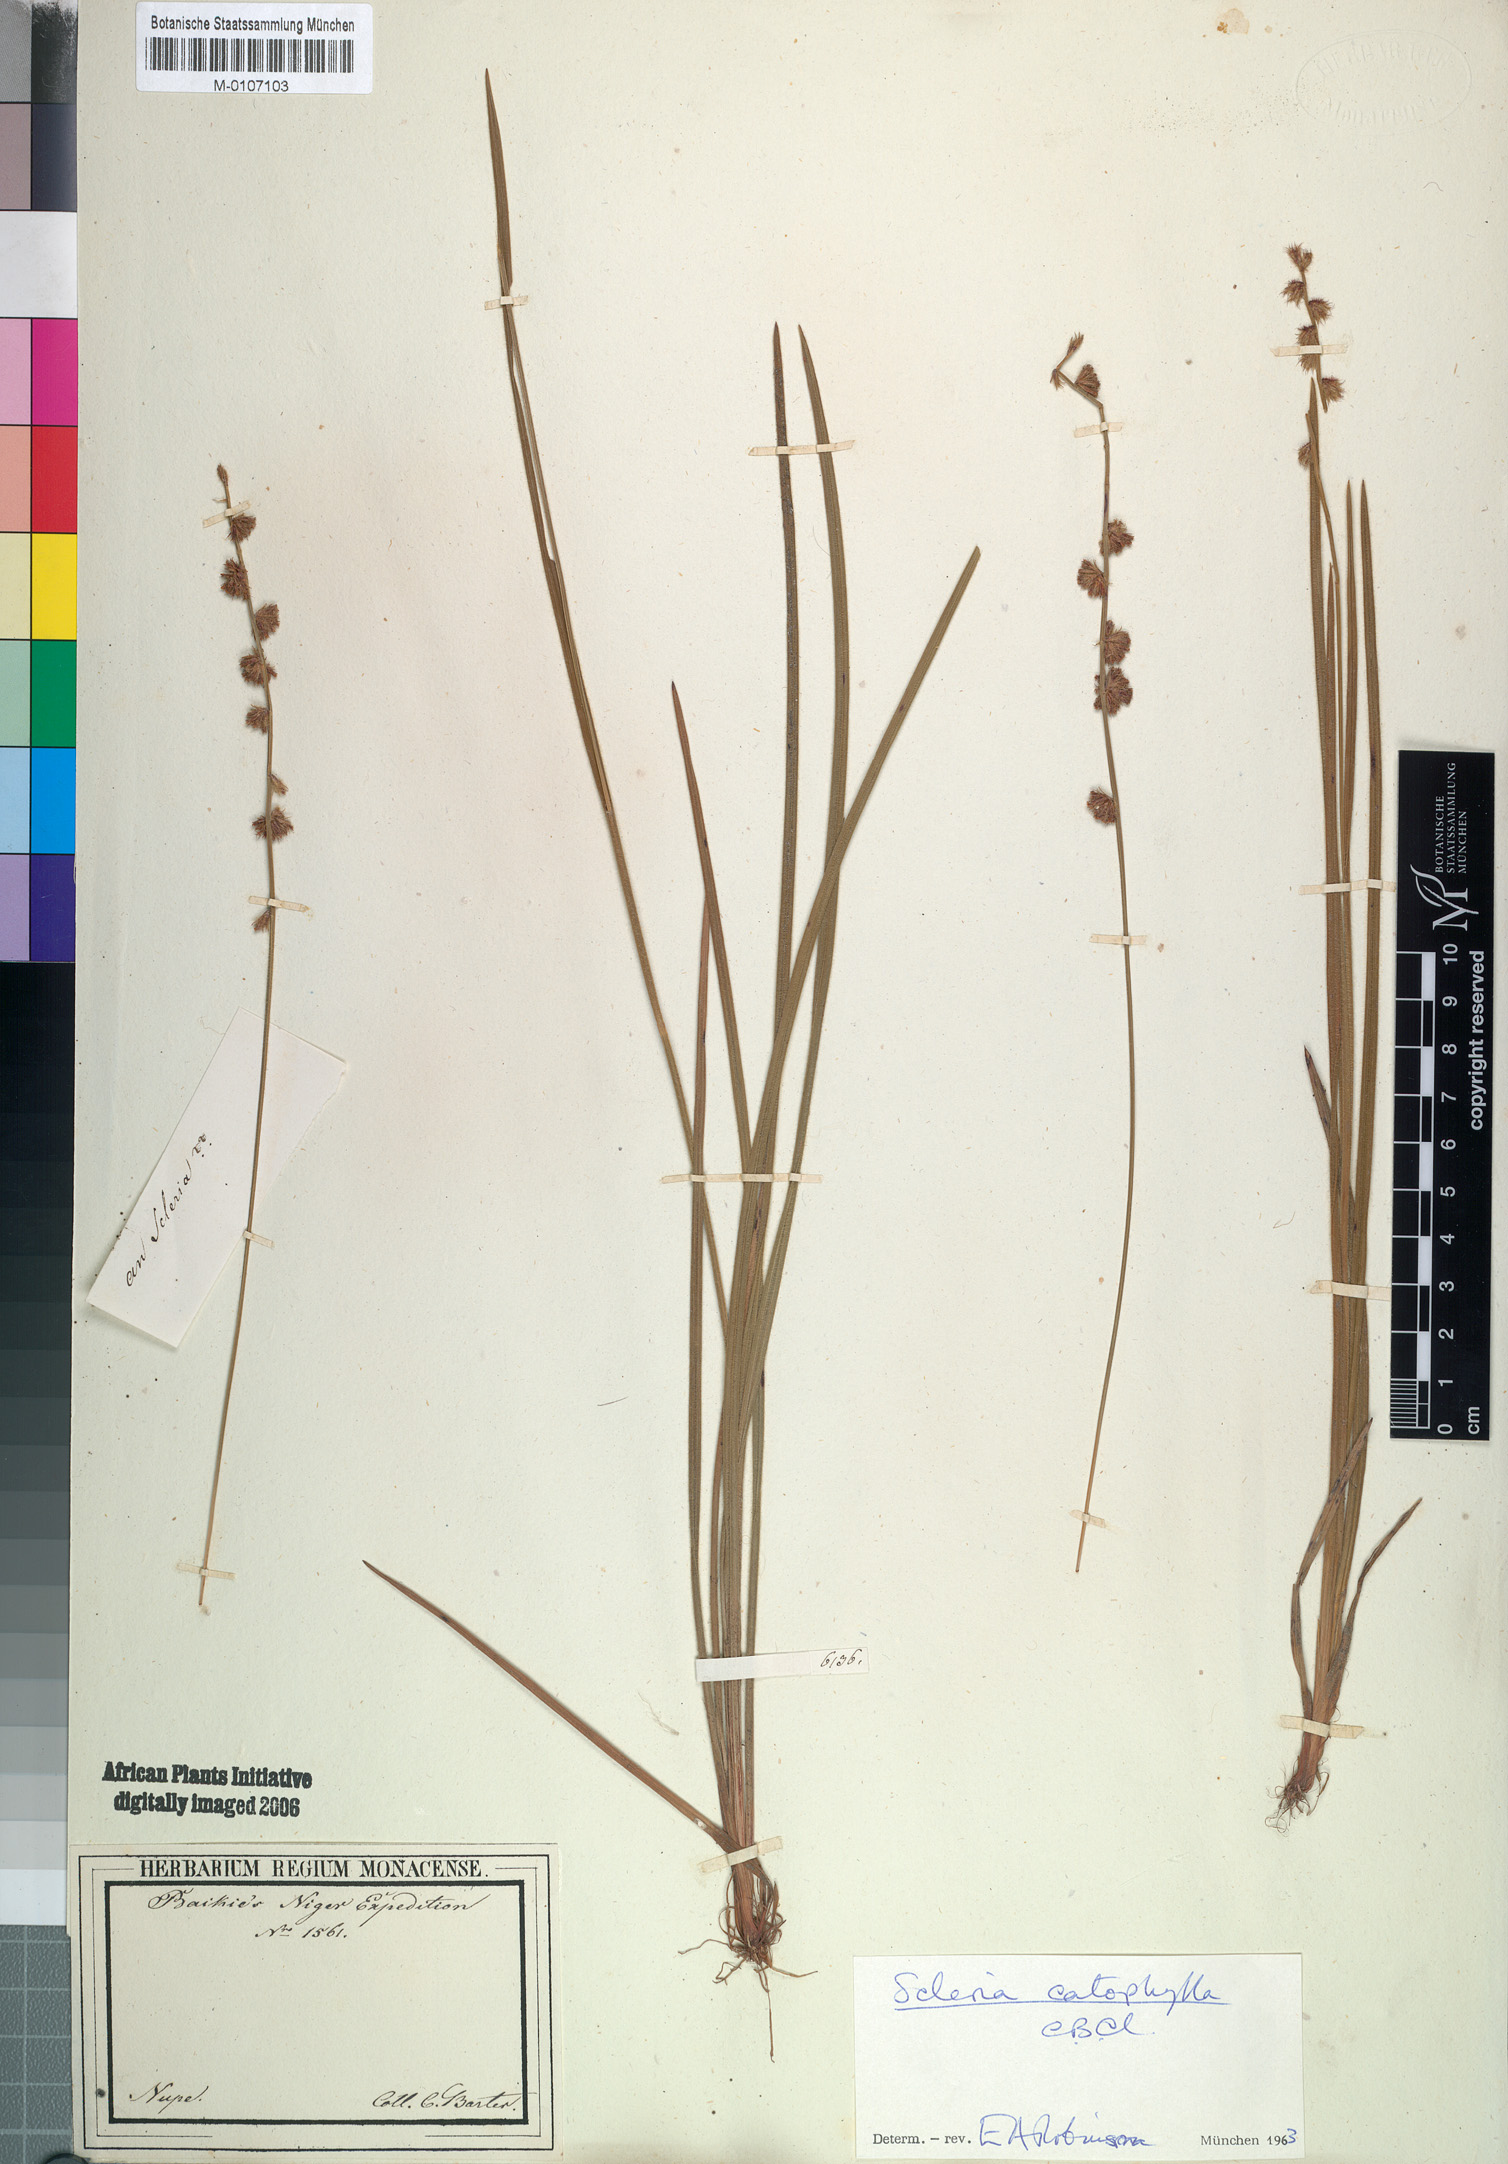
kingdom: Plantae
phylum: Tracheophyta
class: Liliopsida
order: Poales
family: Cyperaceae
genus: Scleria
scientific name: Scleria catophylla
